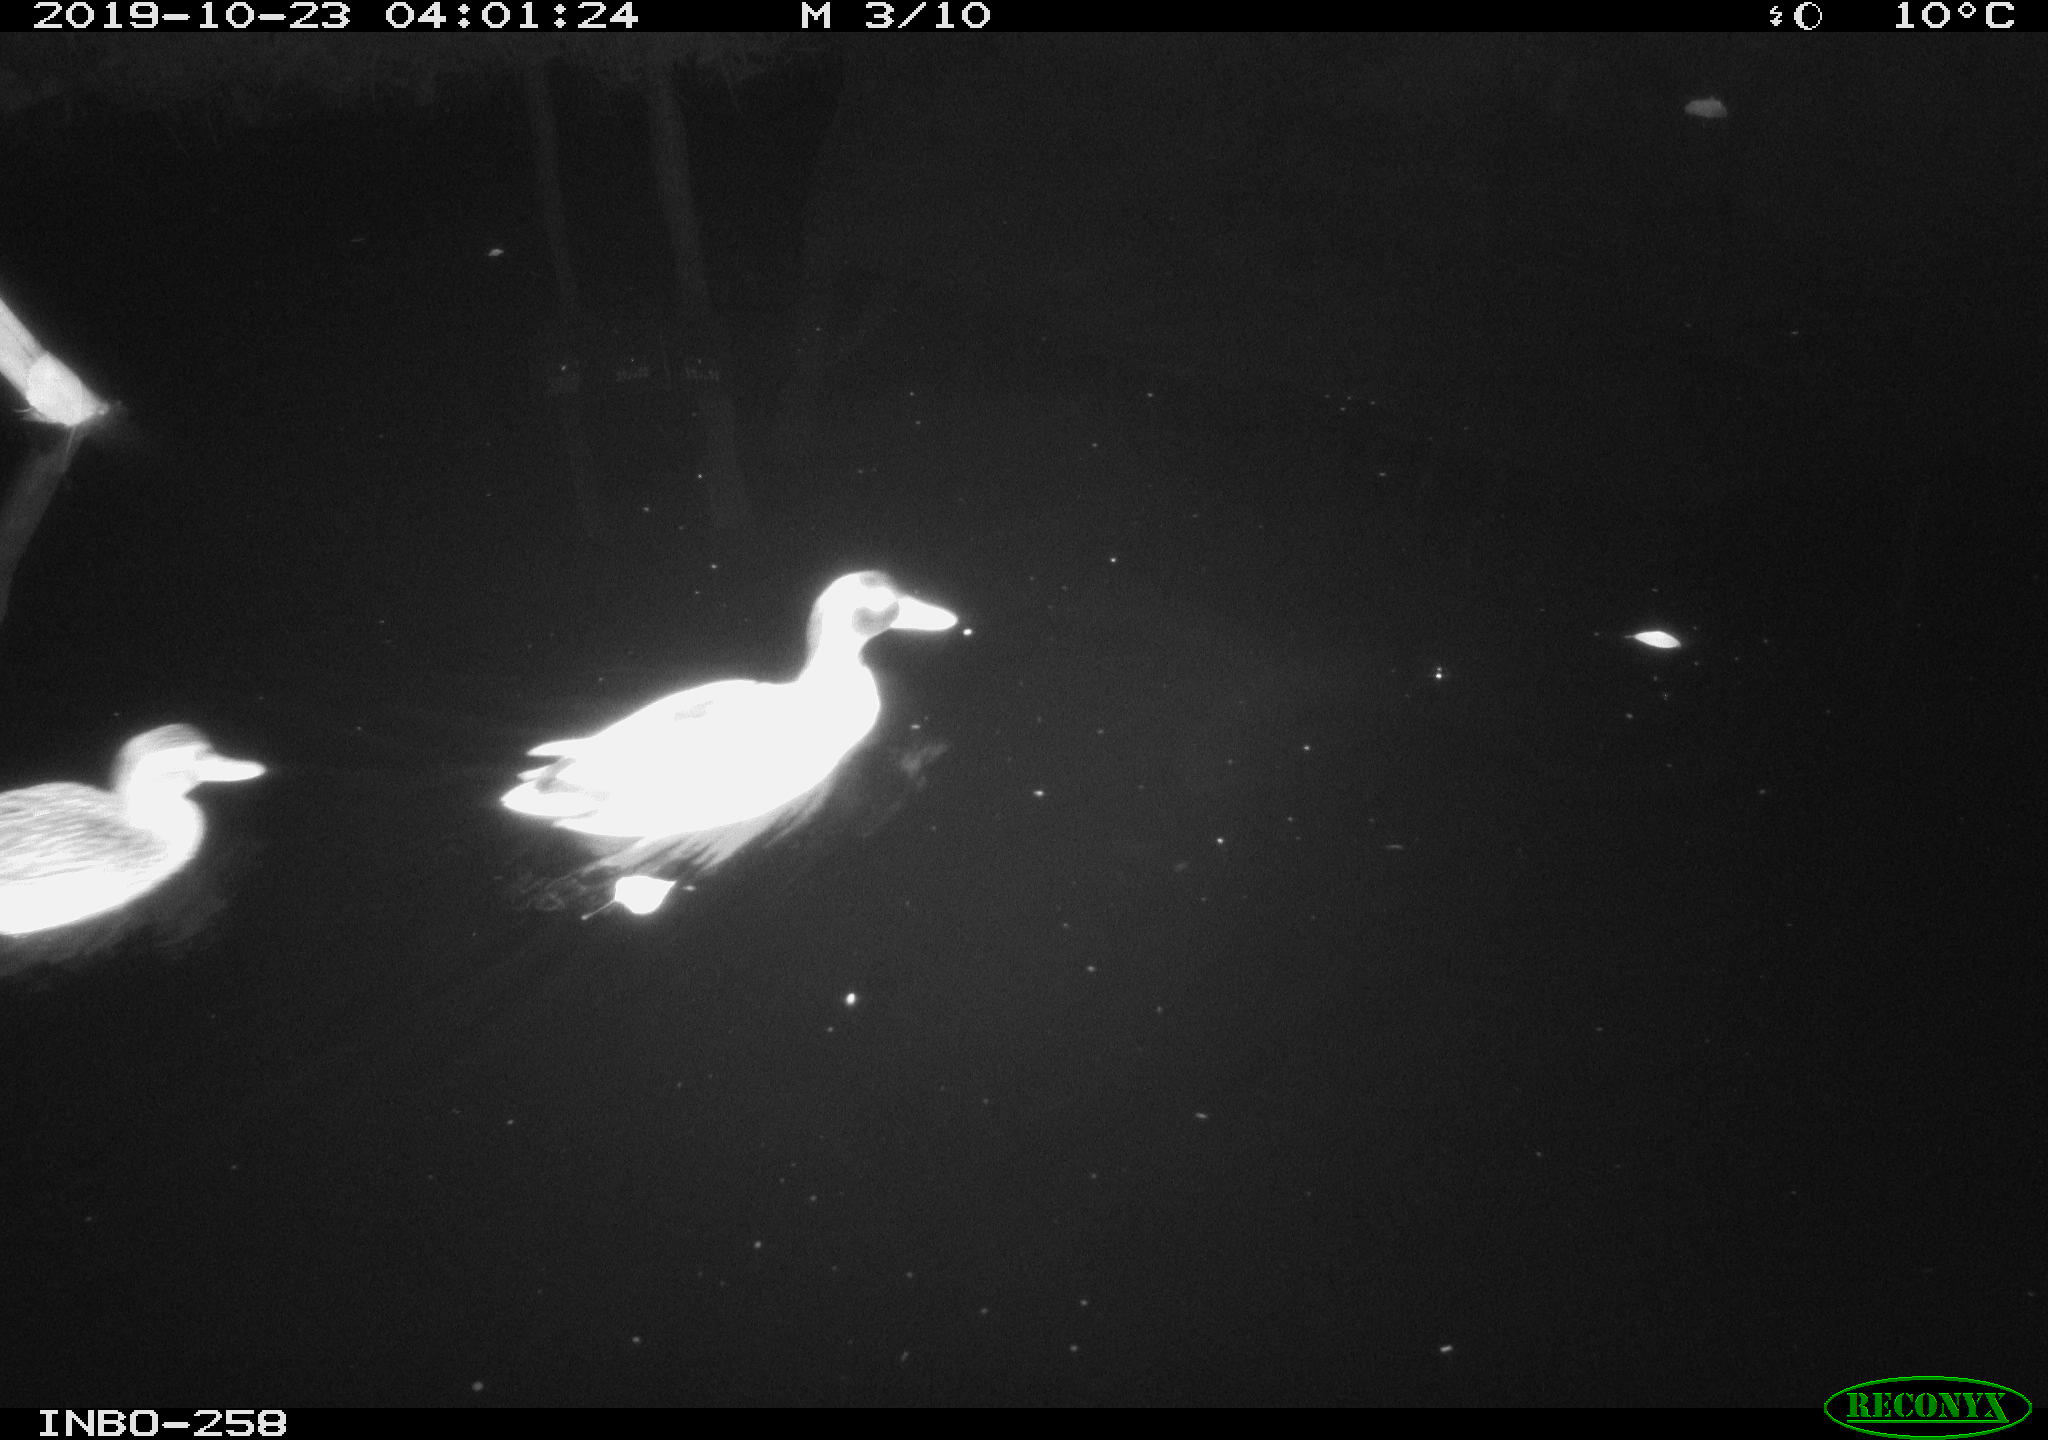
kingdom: Animalia
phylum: Chordata
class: Aves
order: Anseriformes
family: Anatidae
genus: Anas
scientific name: Anas platyrhynchos
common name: Mallard
